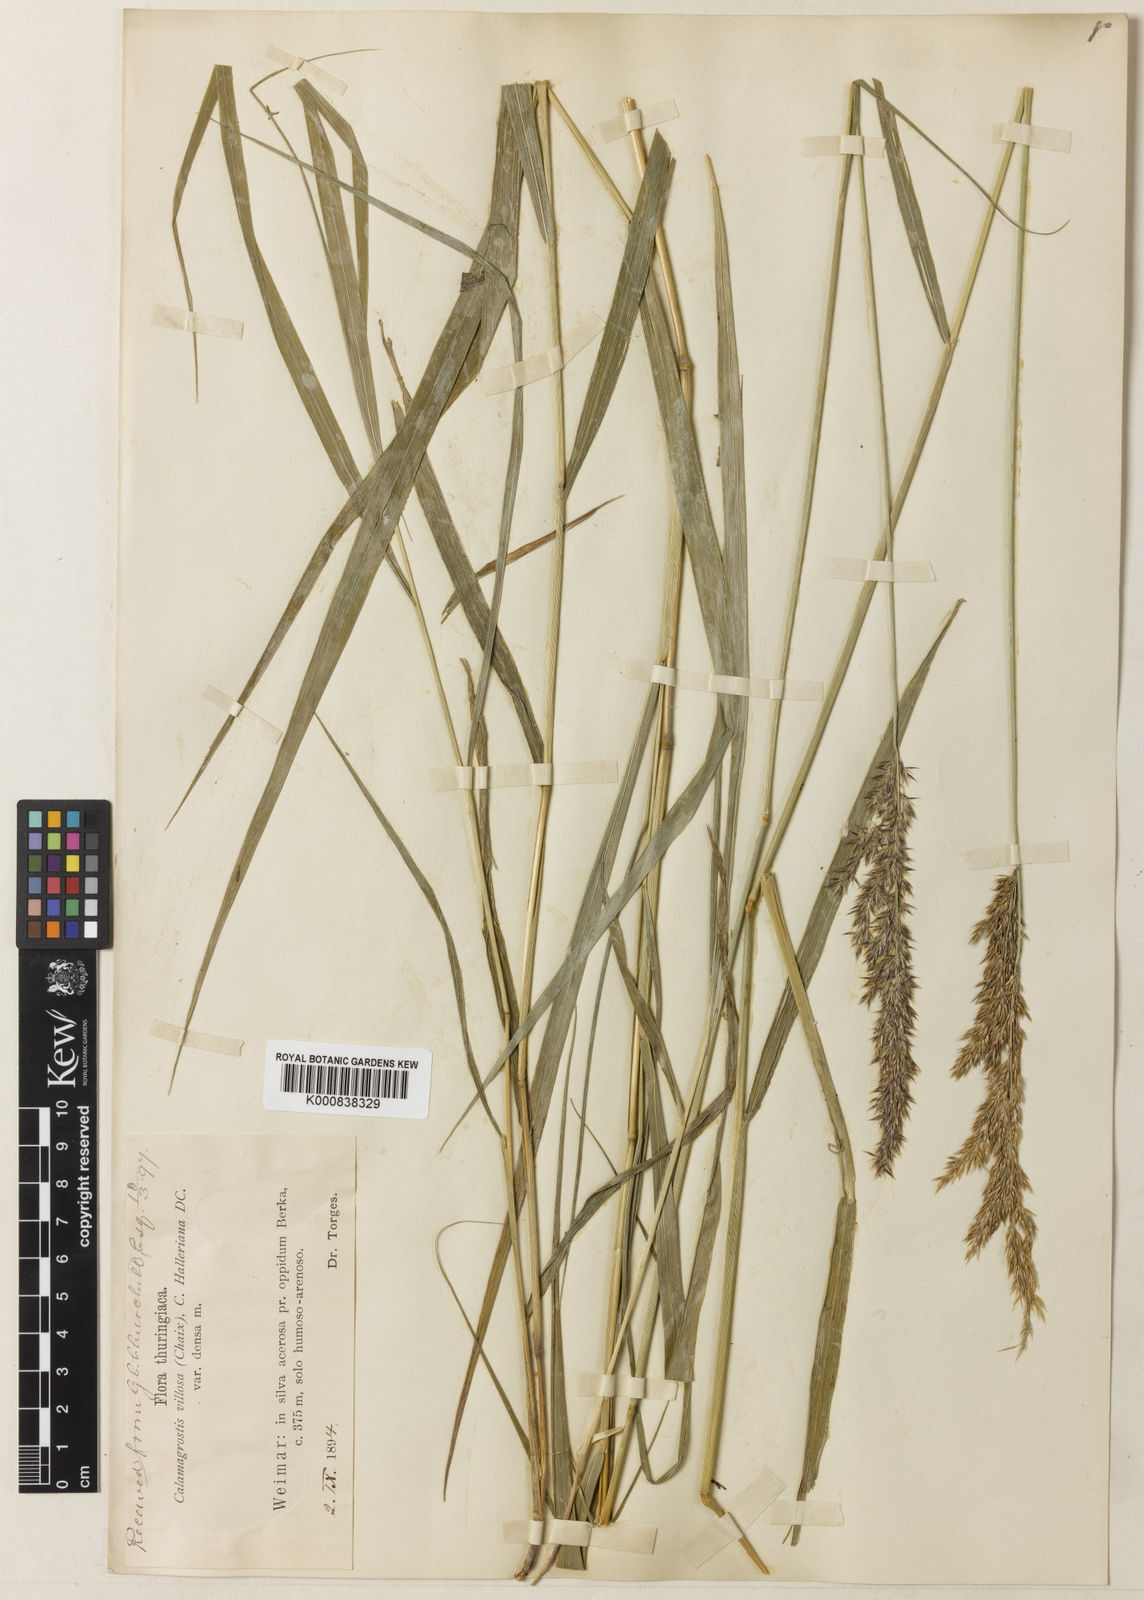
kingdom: Plantae
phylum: Tracheophyta
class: Liliopsida
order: Poales
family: Poaceae
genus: Calamagrostis
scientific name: Calamagrostis villosa
